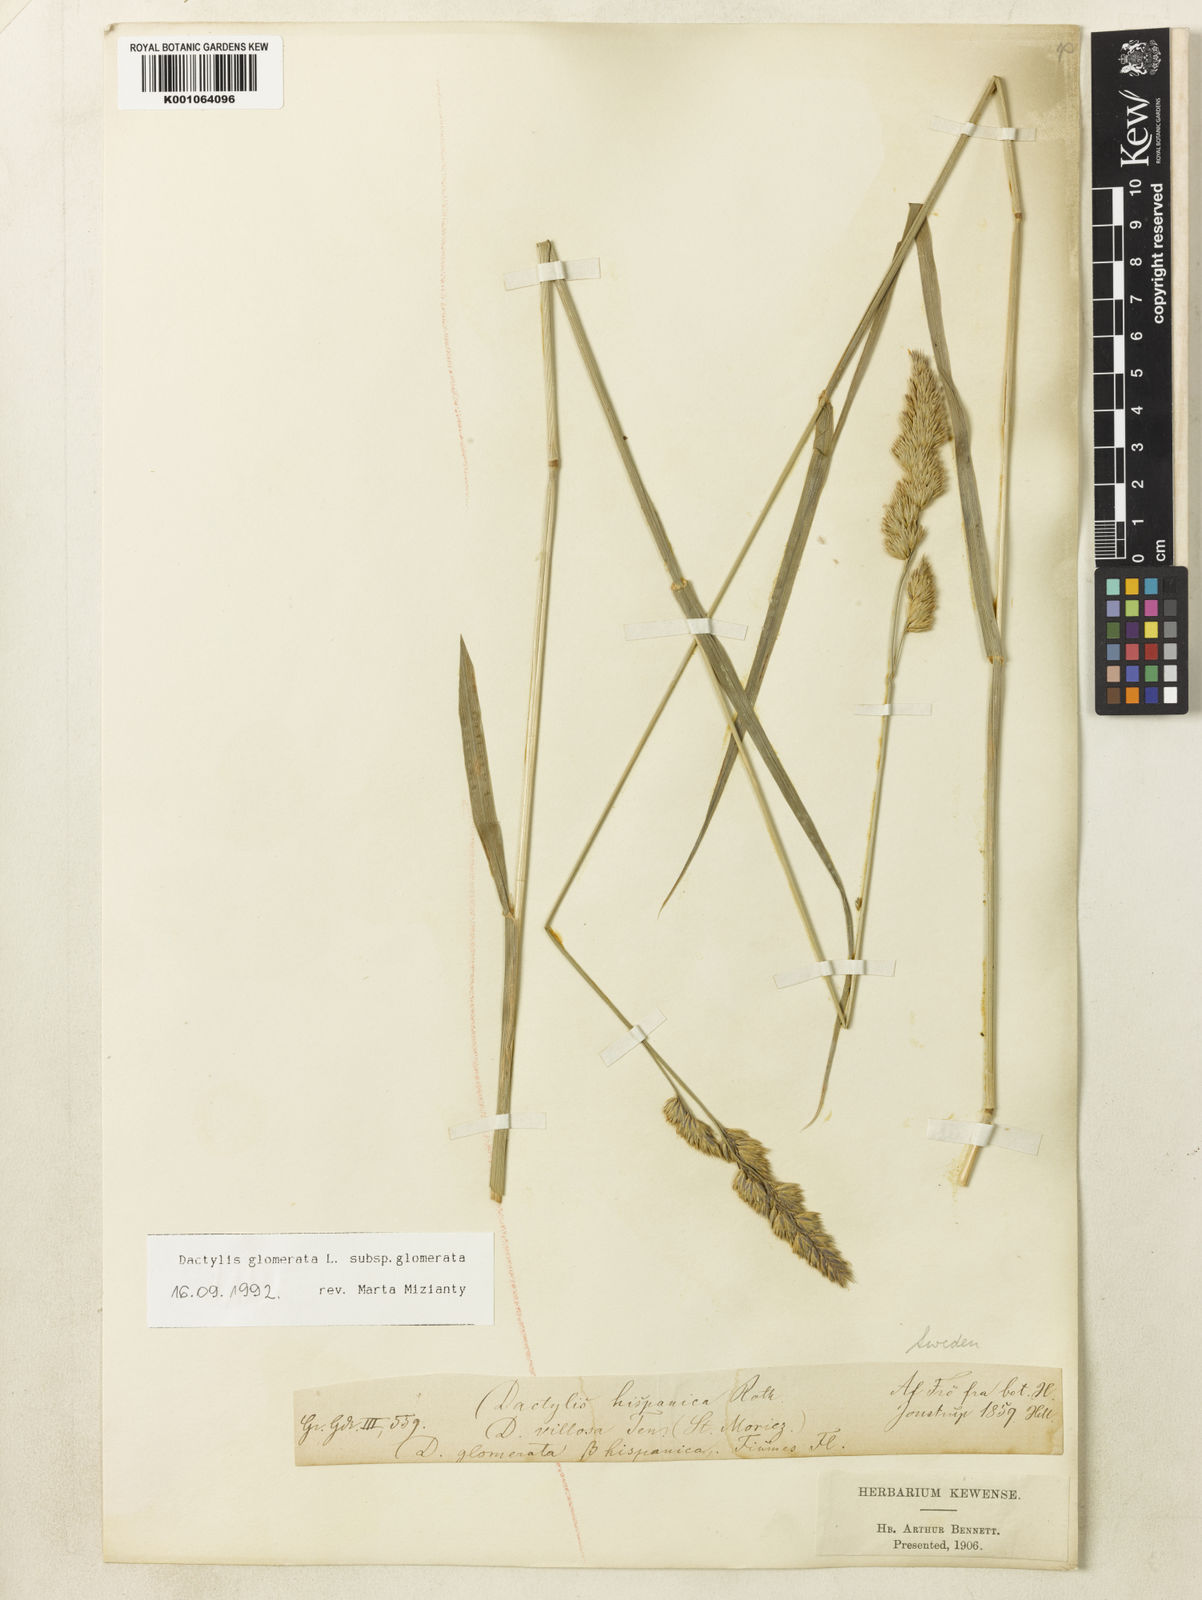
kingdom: Plantae
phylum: Tracheophyta
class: Liliopsida
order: Poales
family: Poaceae
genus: Dactylis
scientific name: Dactylis glomerata
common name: Orchardgrass
